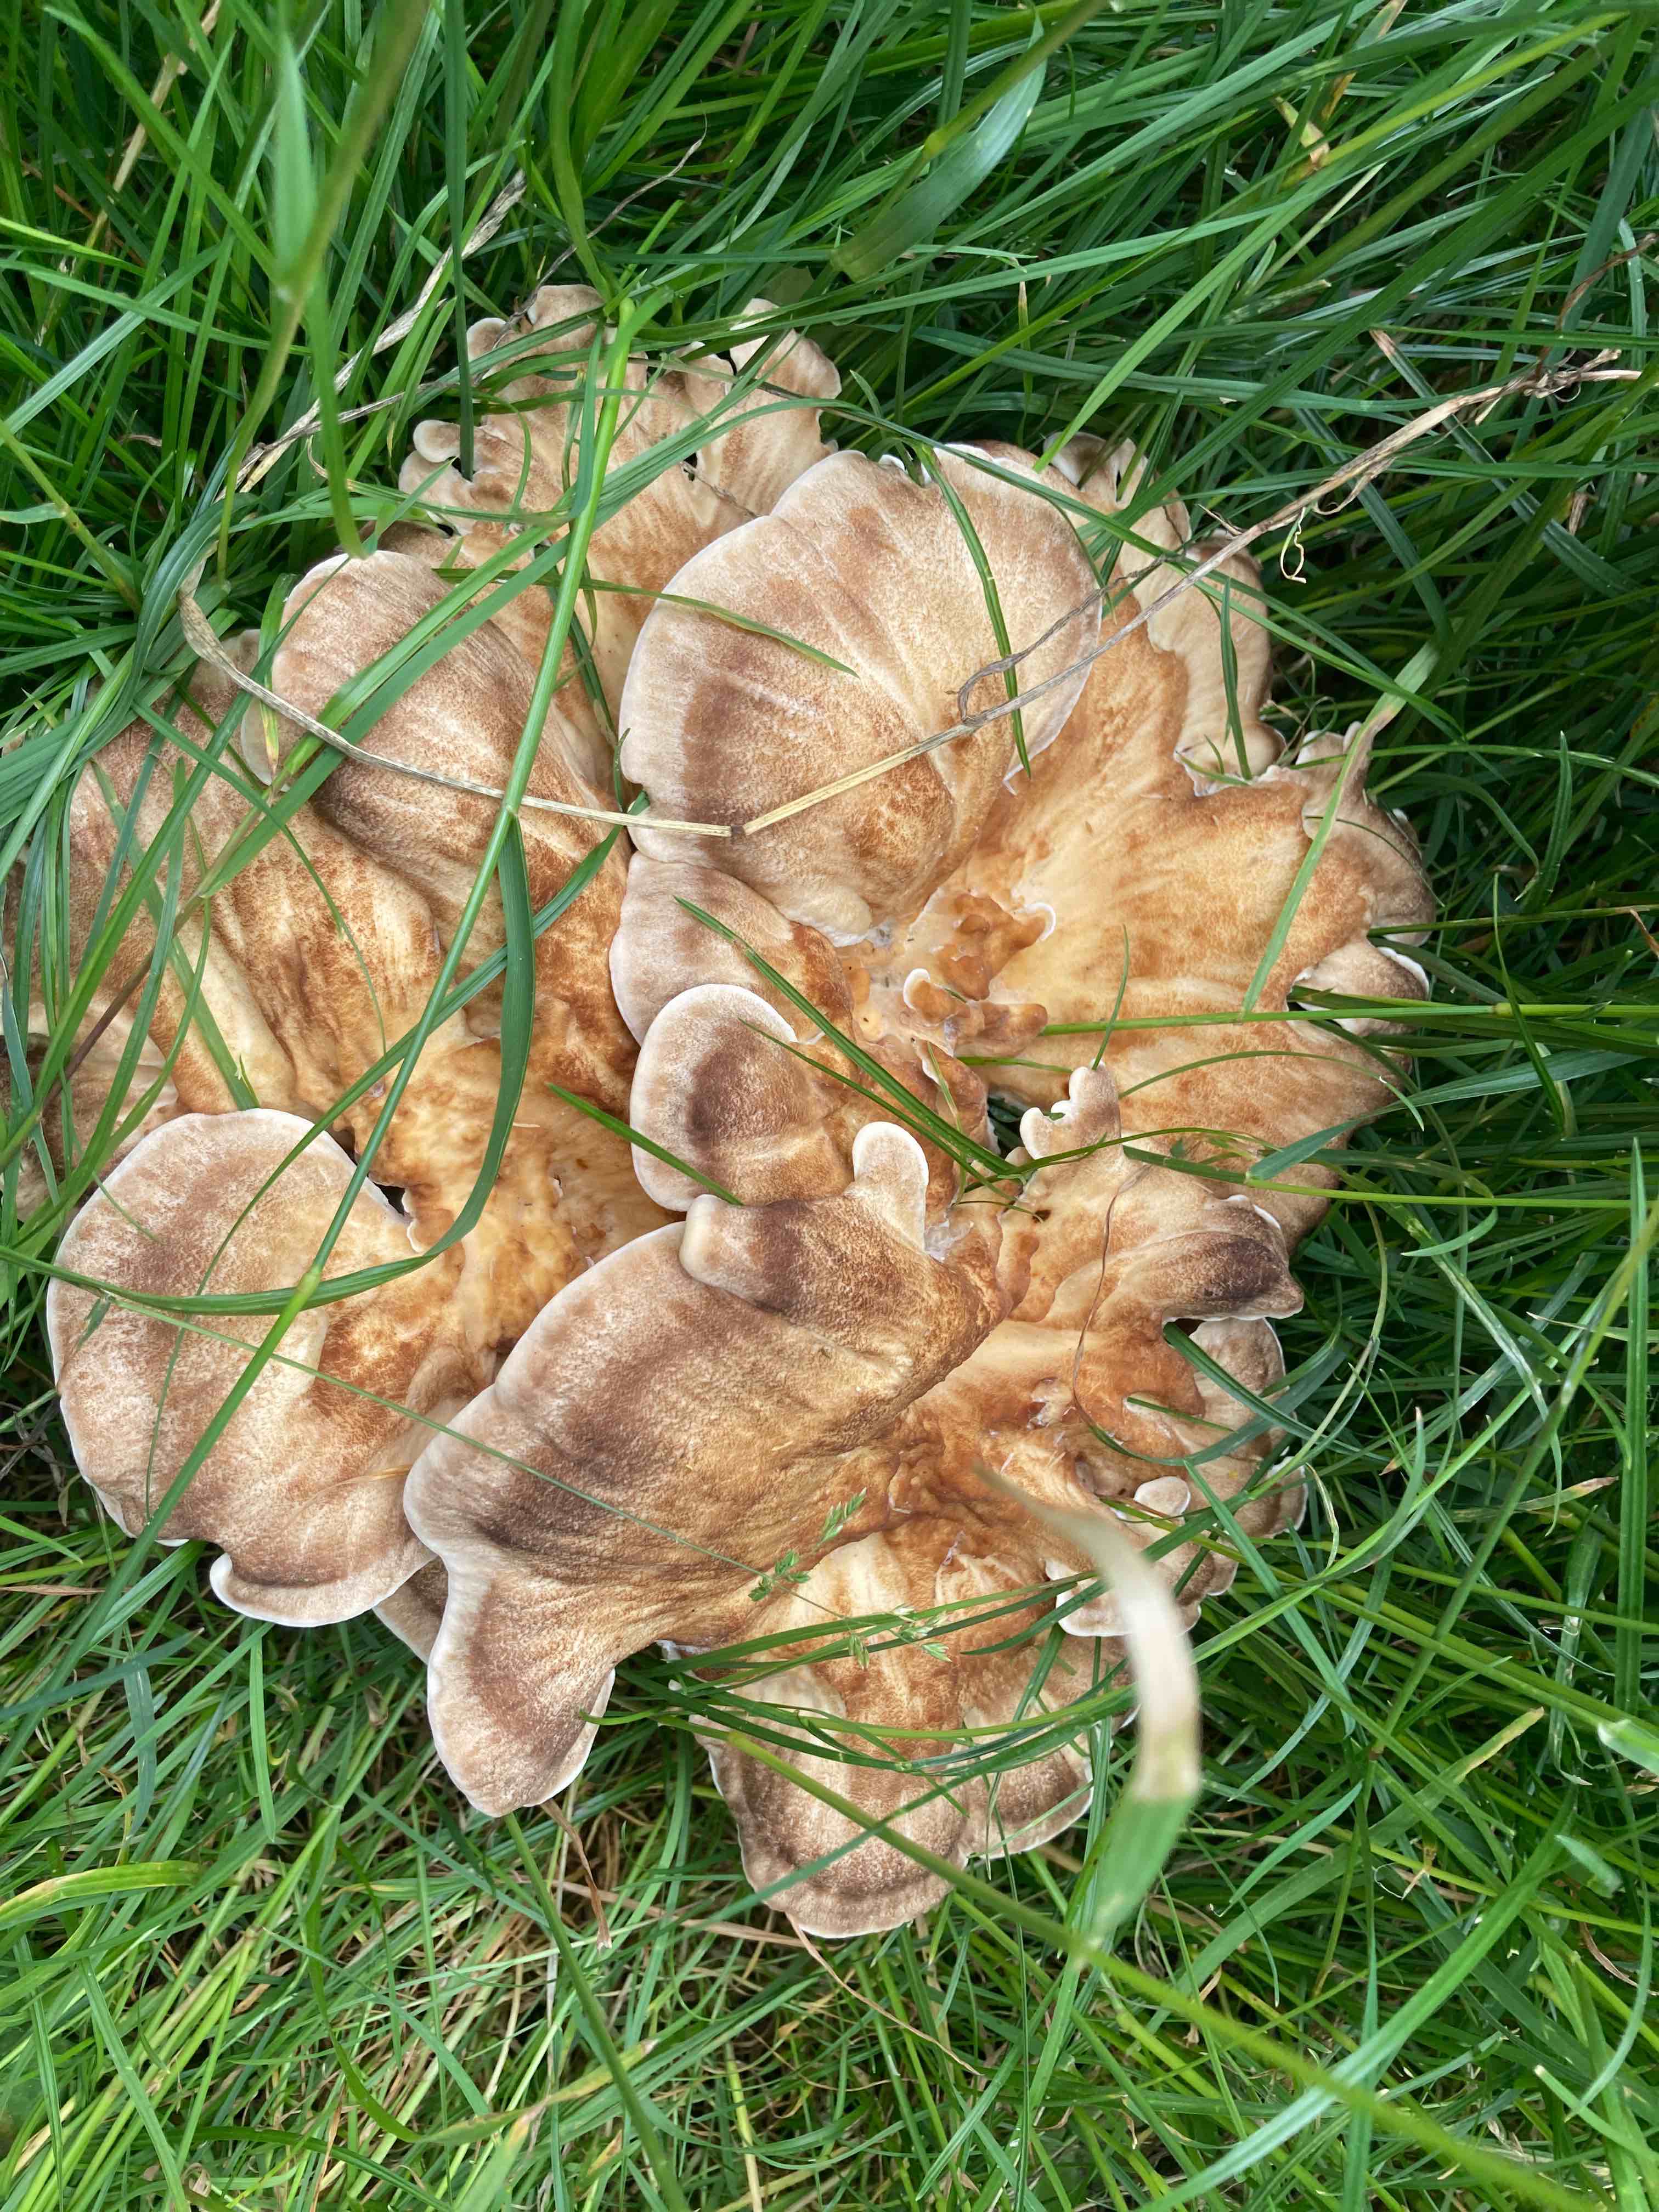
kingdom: Fungi
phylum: Basidiomycota
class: Agaricomycetes
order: Polyporales
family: Meripilaceae
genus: Meripilus
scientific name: Meripilus giganteus
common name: kæmpeporesvamp
